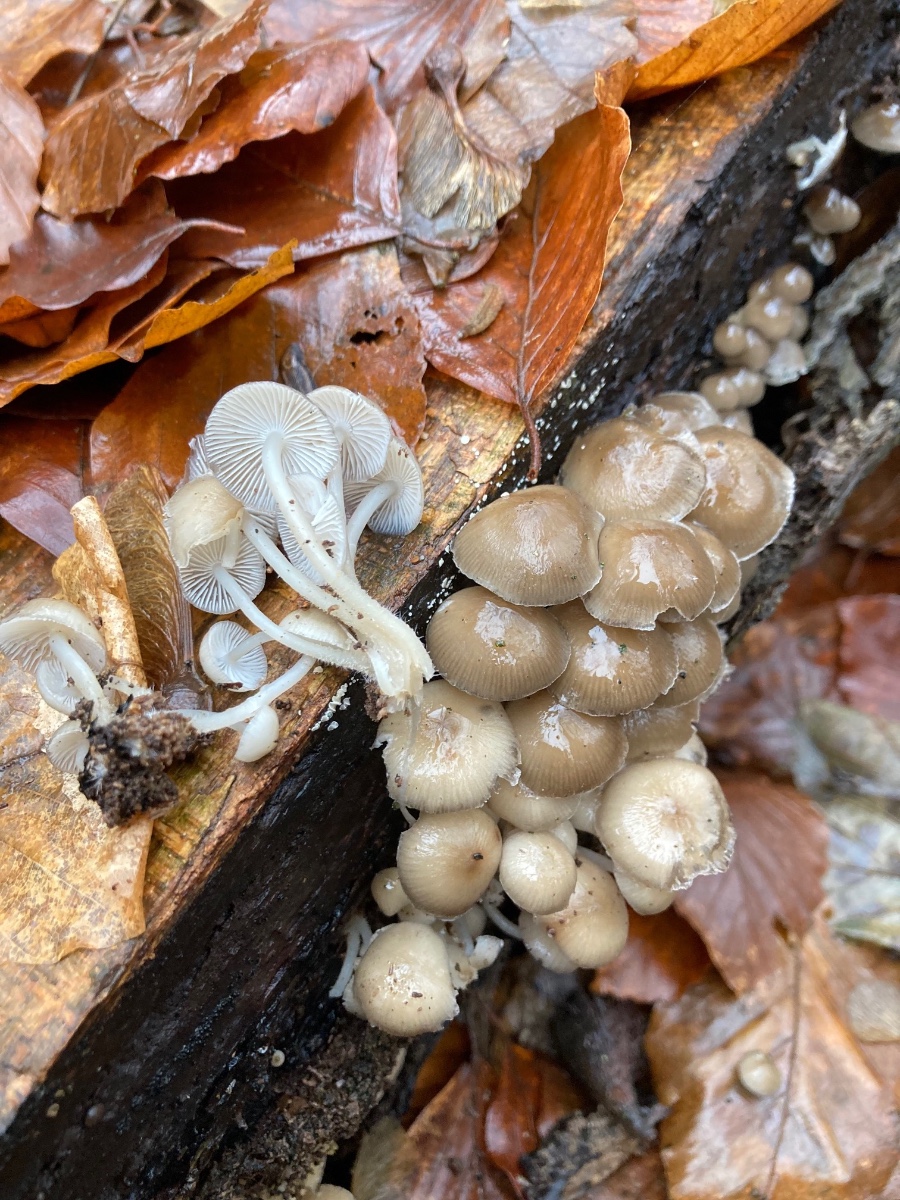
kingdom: Fungi
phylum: Basidiomycota
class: Agaricomycetes
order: Agaricales
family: Mycenaceae
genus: Mycena
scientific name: Mycena tintinnabulum
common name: vinter-huesvamp
